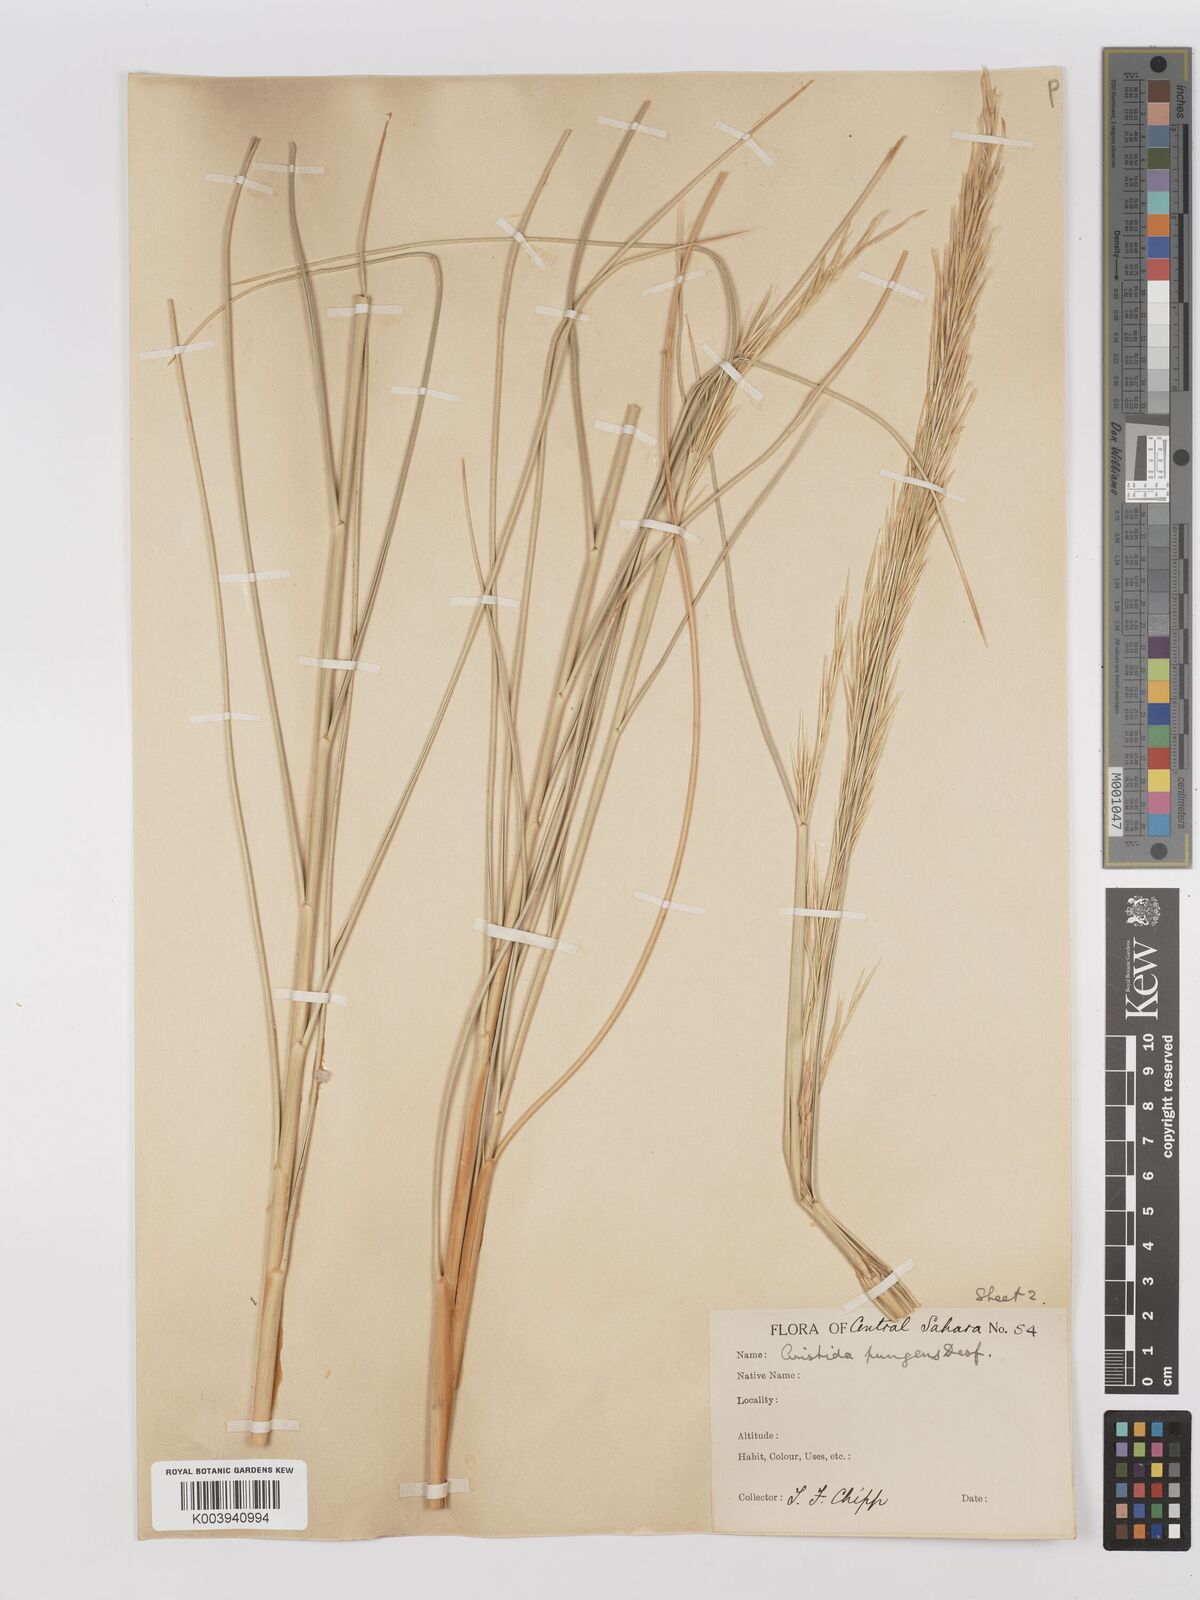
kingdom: Plantae
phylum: Tracheophyta
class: Liliopsida
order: Poales
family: Poaceae
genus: Stipagrostis
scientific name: Stipagrostis pungens
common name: Three-awn grass
